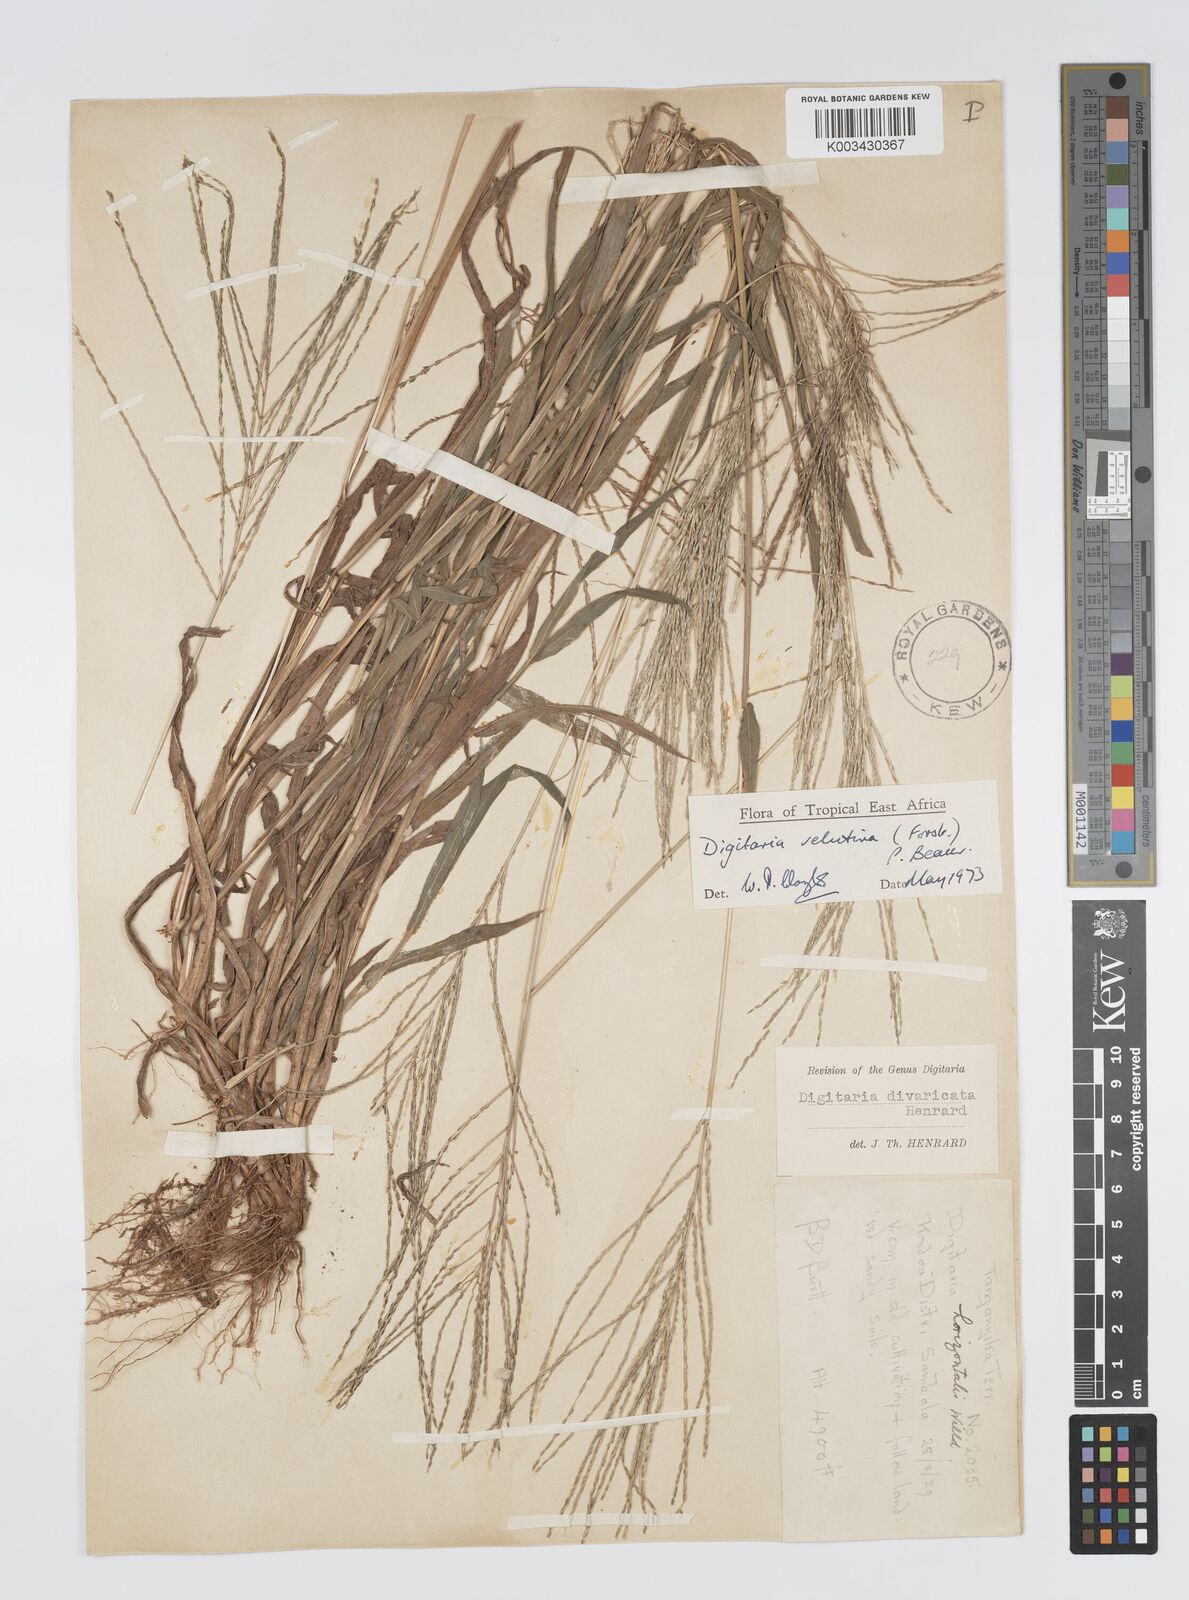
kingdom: Plantae
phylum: Tracheophyta
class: Liliopsida
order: Poales
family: Poaceae
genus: Digitaria
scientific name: Digitaria velutina
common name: Long-plume finger grass
